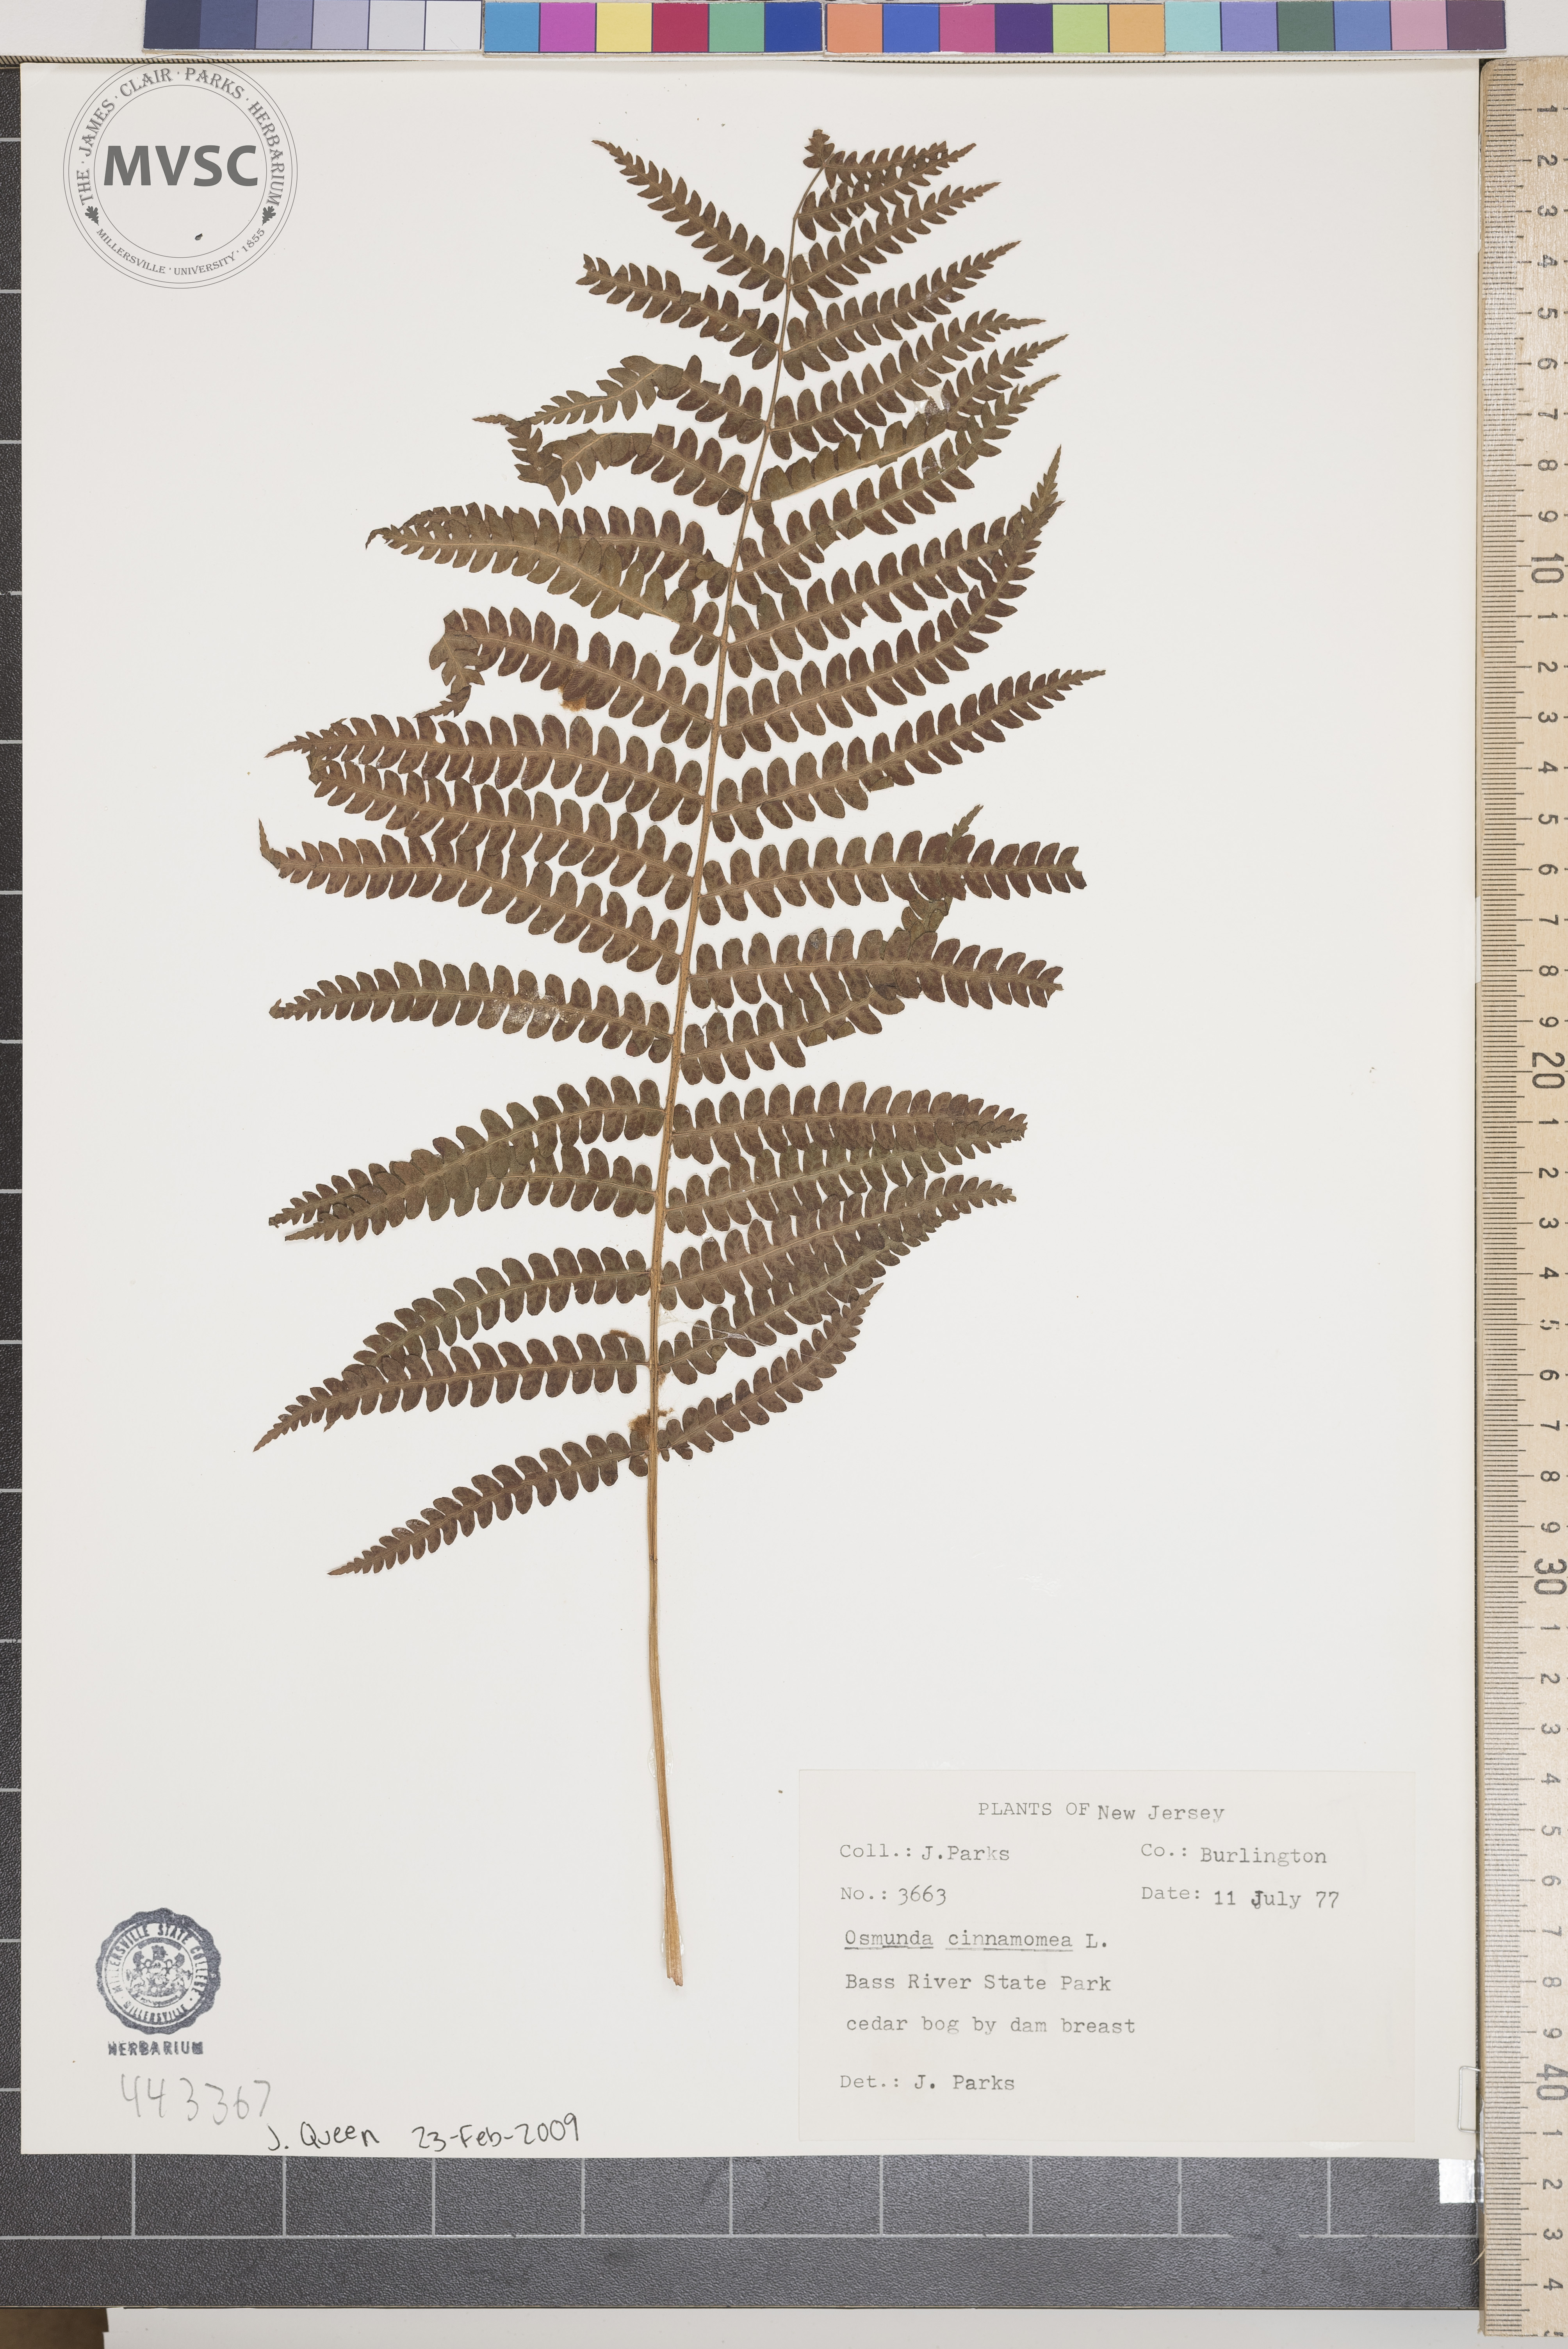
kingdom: Plantae
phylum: Tracheophyta
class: Polypodiopsida
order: Osmundales
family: Osmundaceae
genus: Osmundastrum
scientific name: Osmundastrum cinnamomeum
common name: Cinnamon fern
